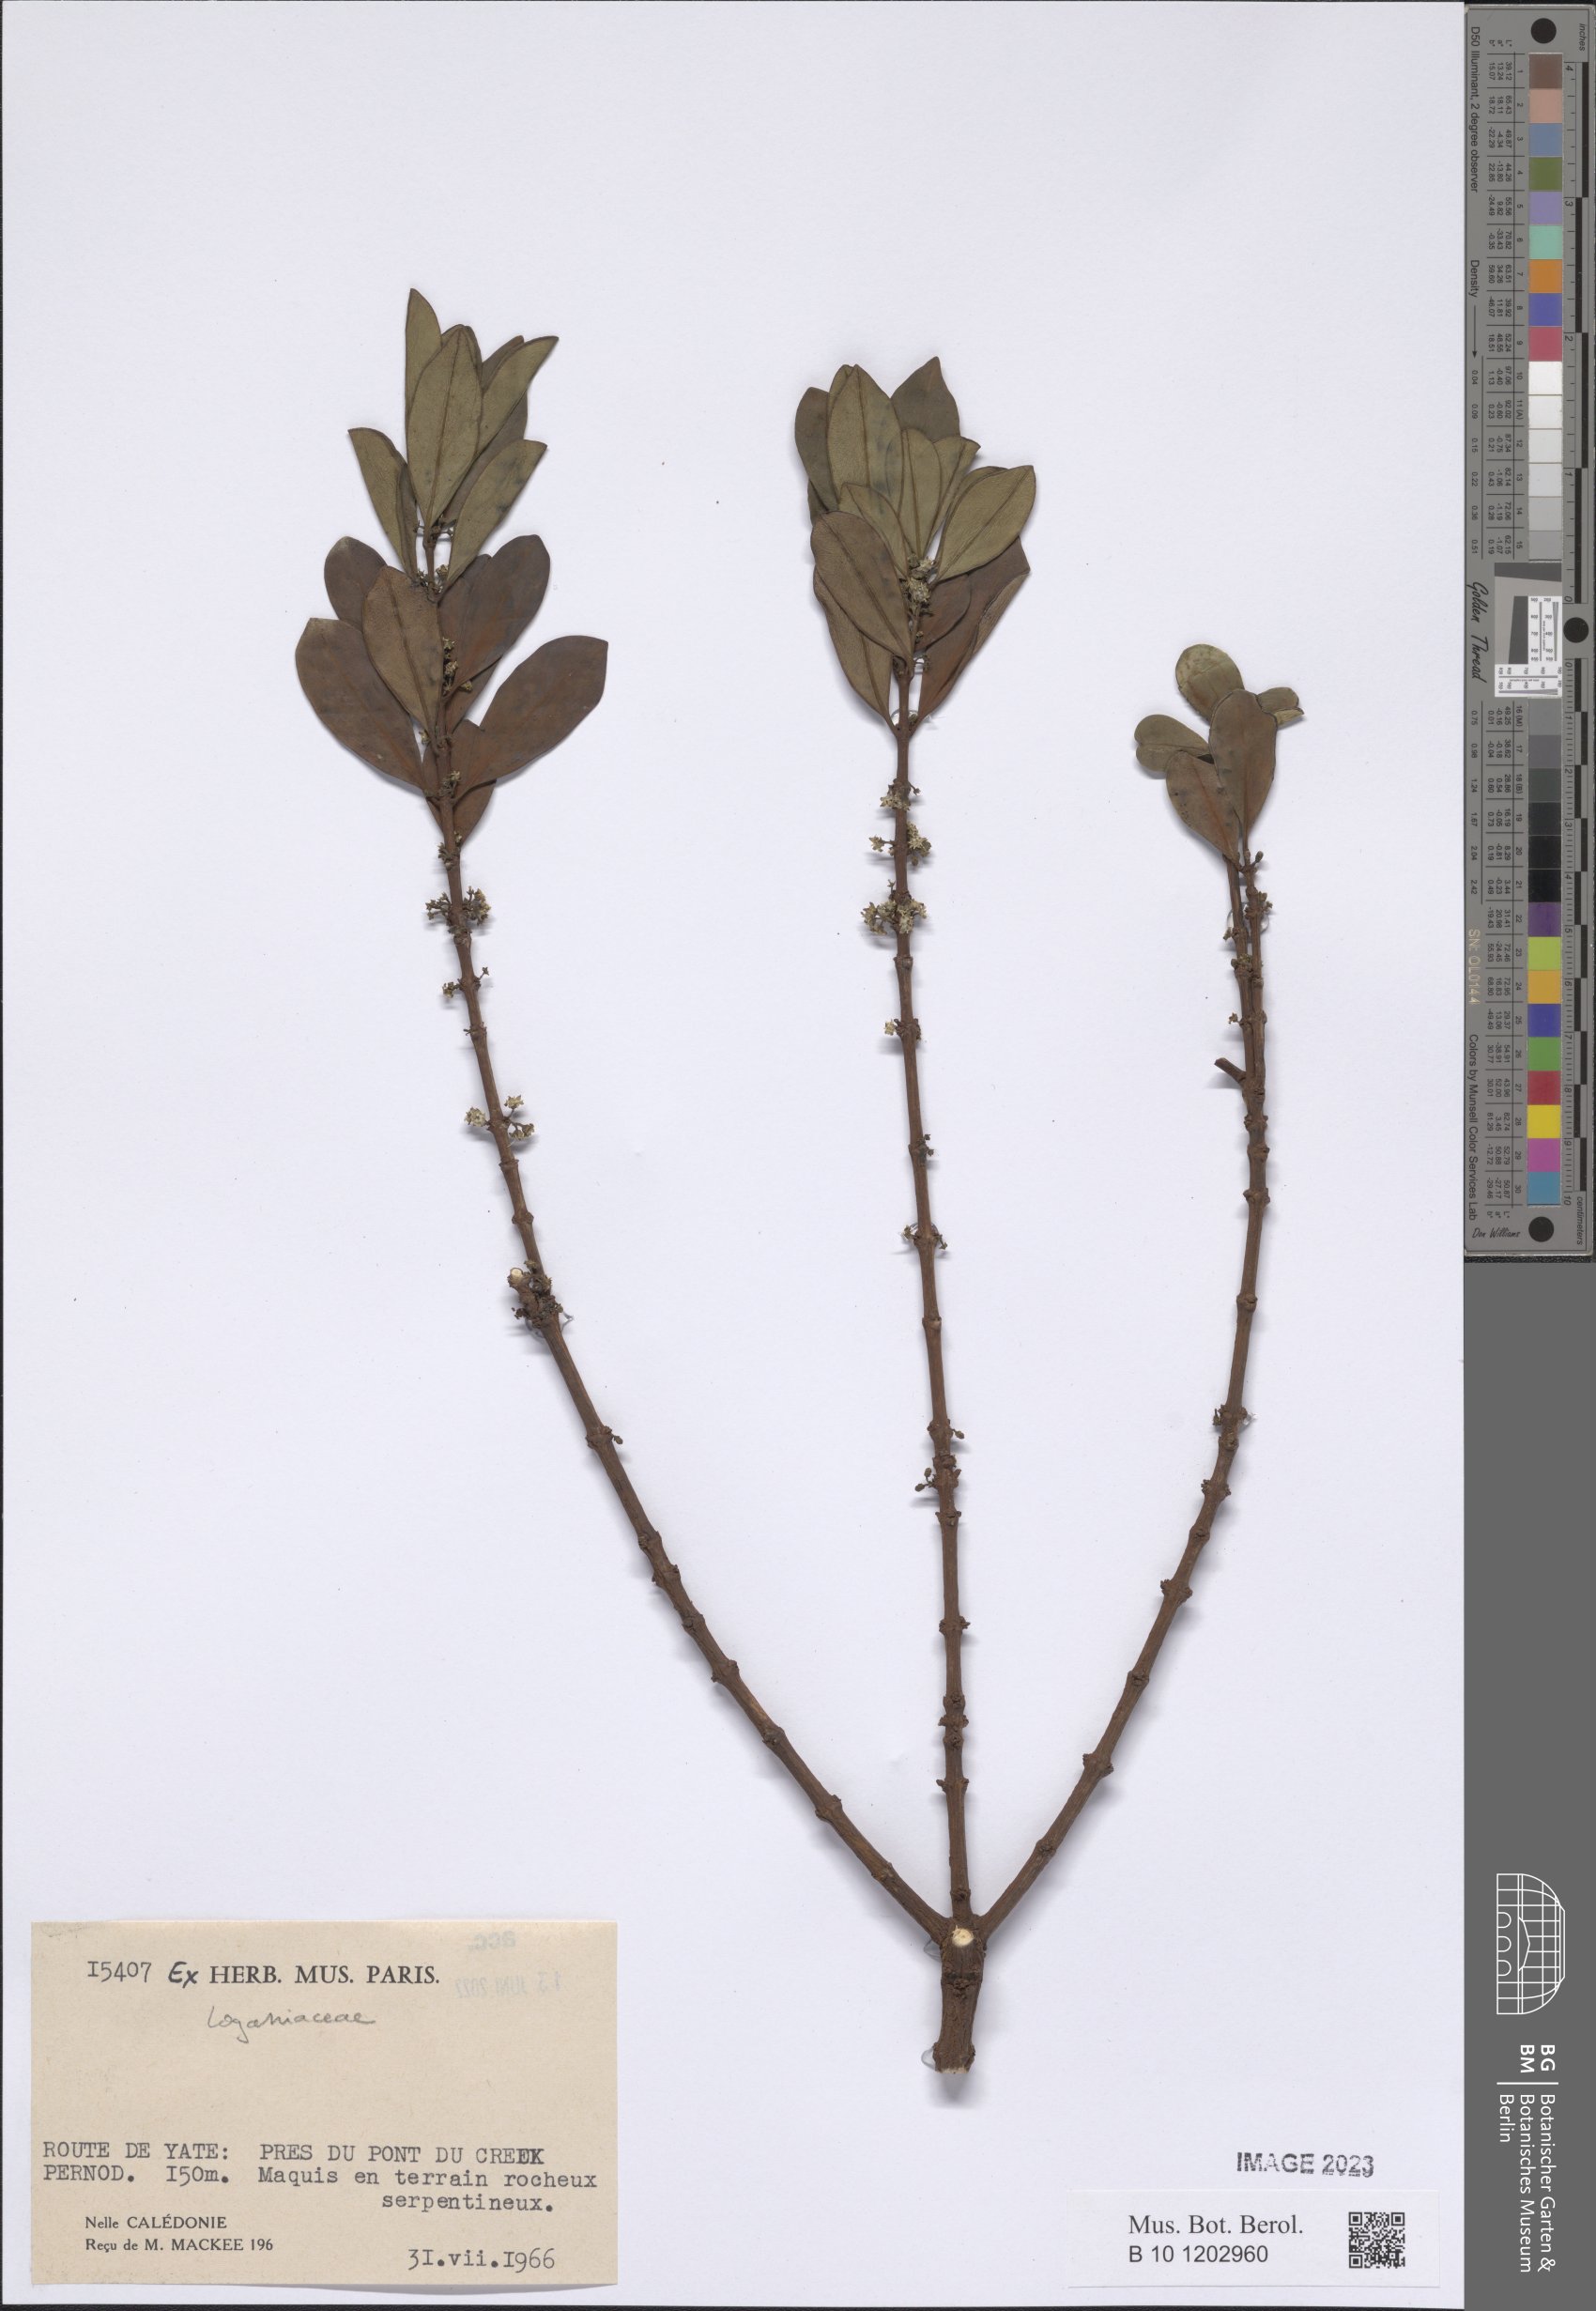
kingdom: Plantae
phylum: Tracheophyta
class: Magnoliopsida
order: Gentianales
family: Loganiaceae
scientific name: Loganiaceae
